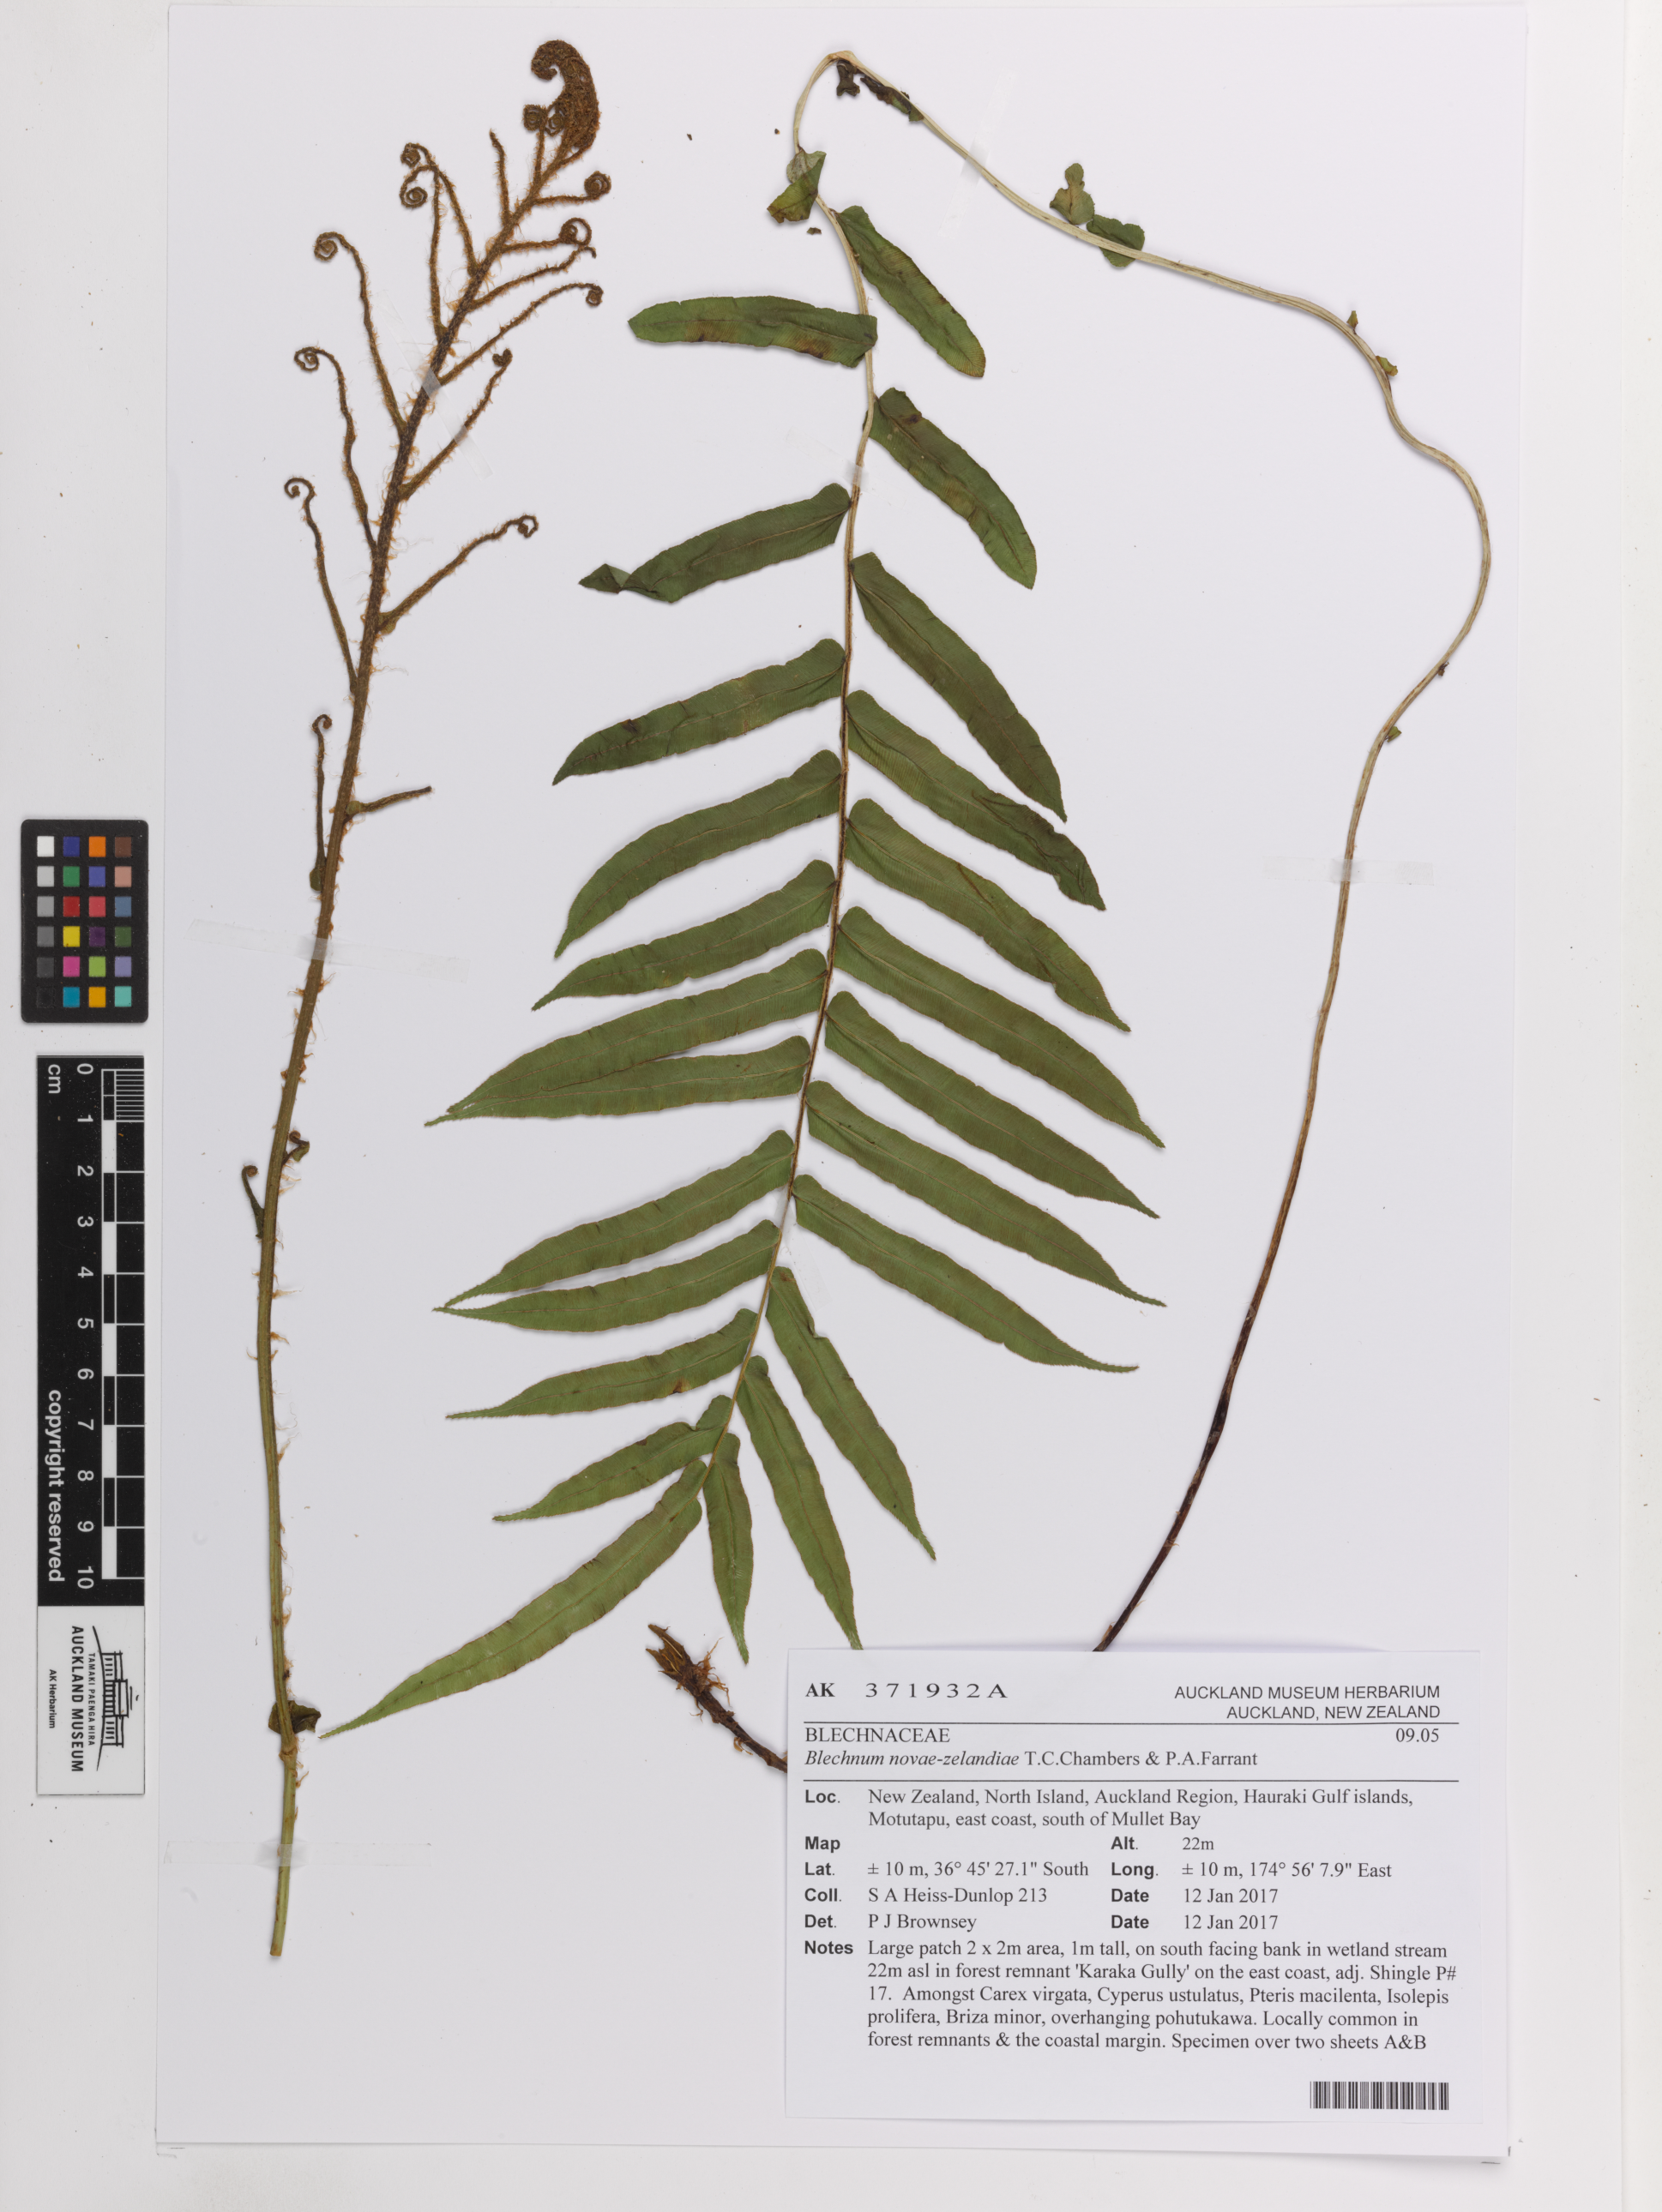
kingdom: Plantae
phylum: Tracheophyta
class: Polypodiopsida
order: Polypodiales
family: Blechnaceae
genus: Parablechnum
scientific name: Parablechnum novae-zelandiae
